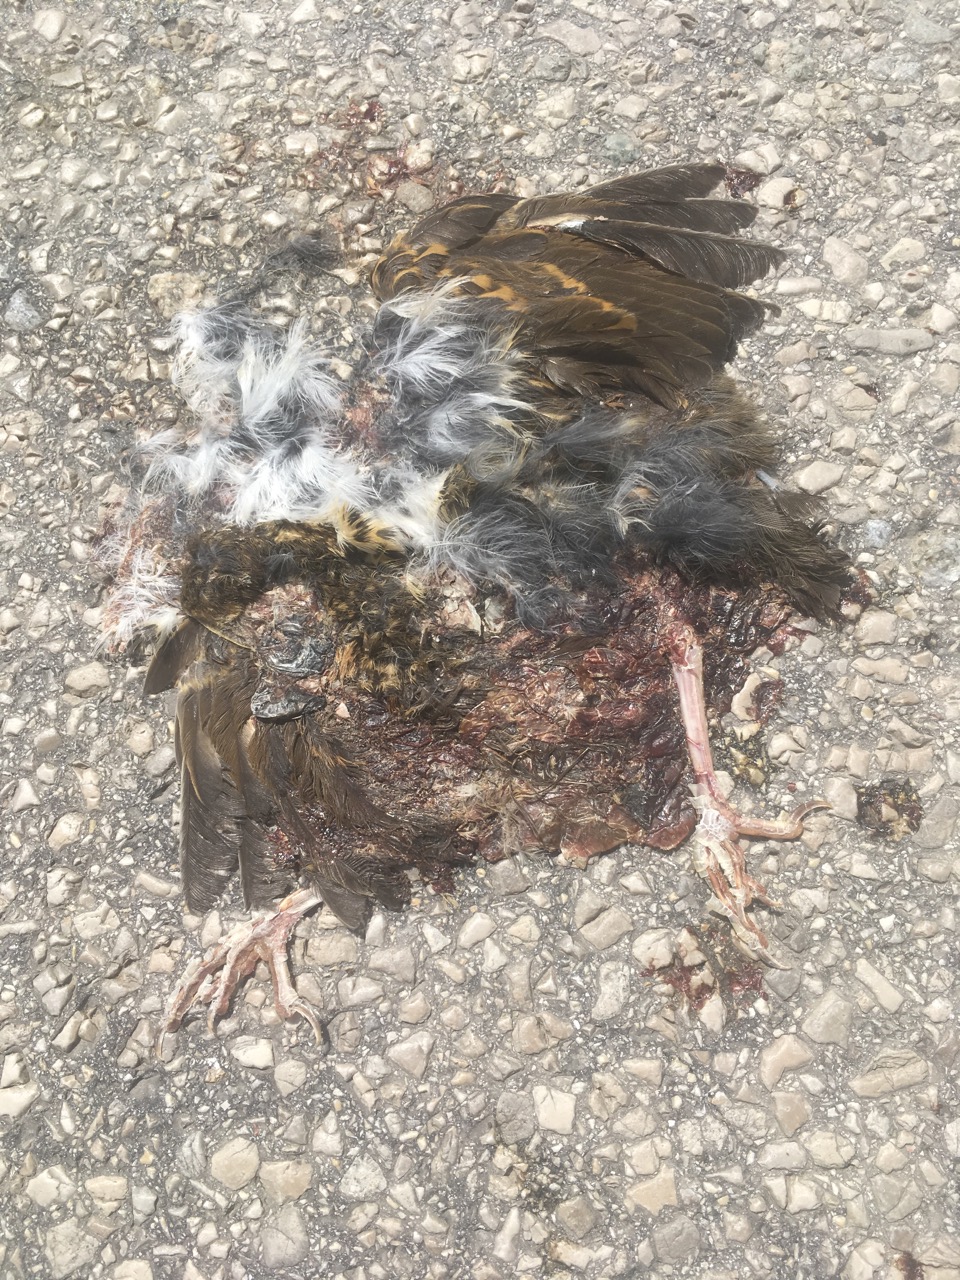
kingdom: Animalia
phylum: Chordata
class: Aves
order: Passeriformes
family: Turdidae
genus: Turdus
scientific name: Turdus philomelos
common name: Song thrush
